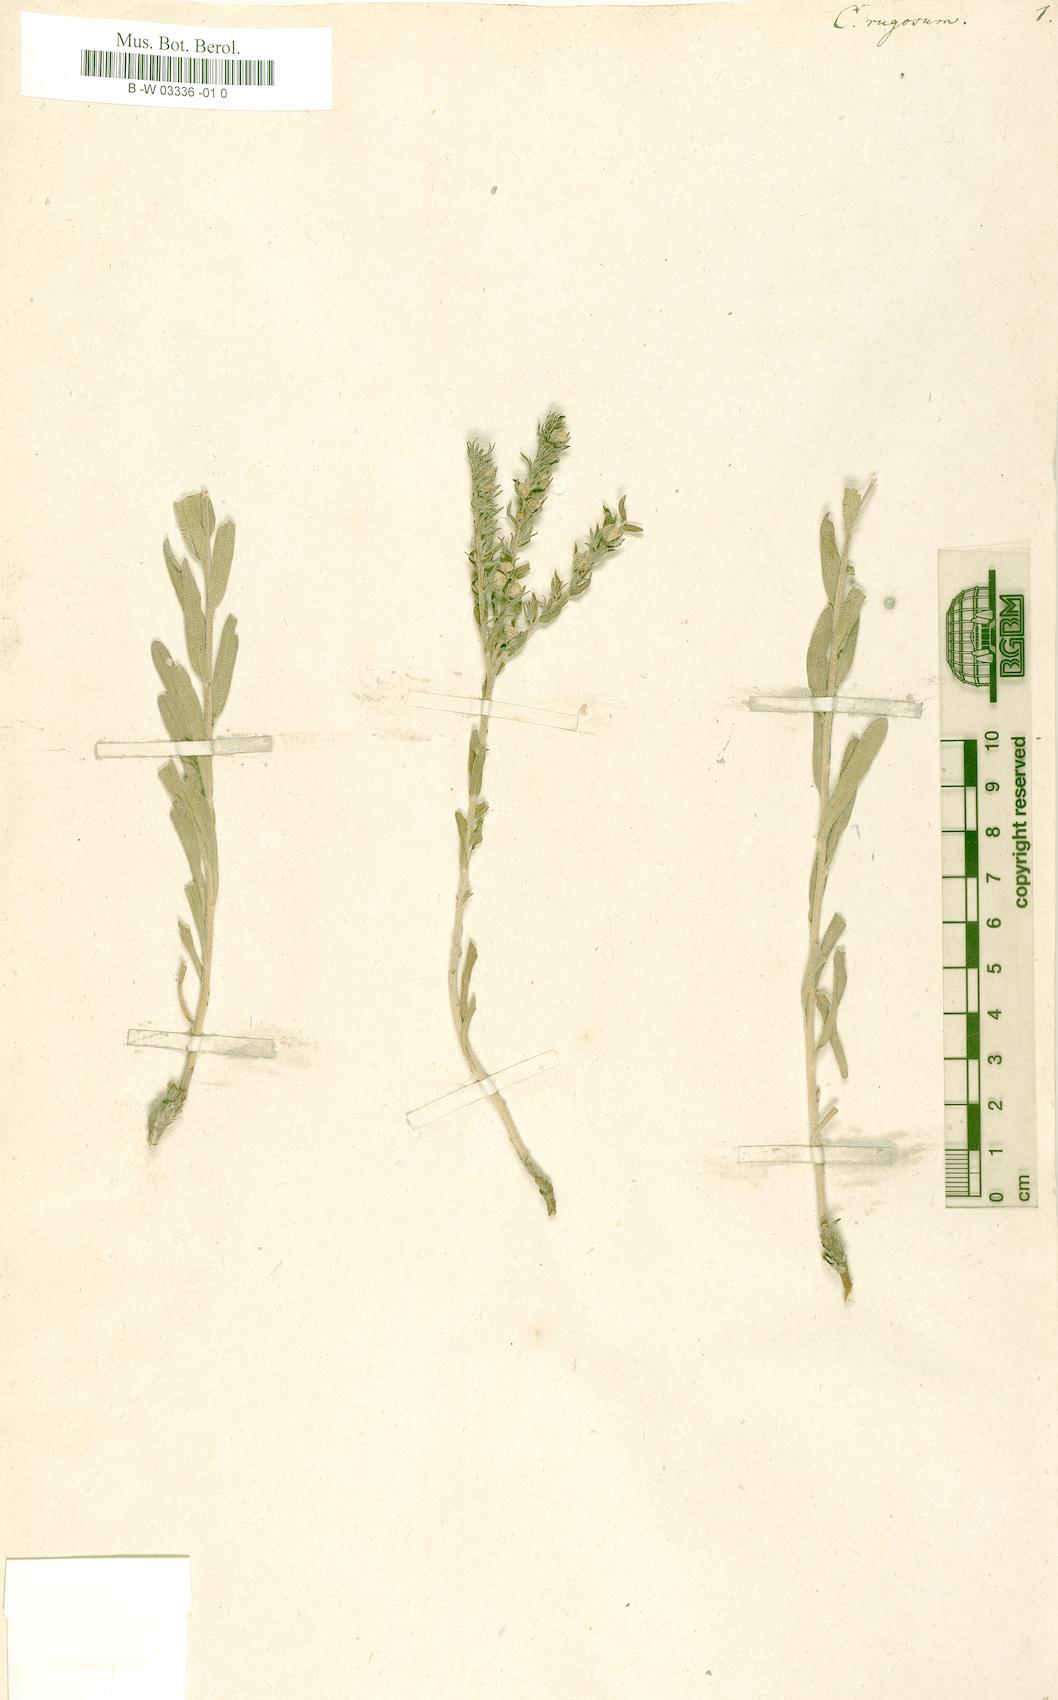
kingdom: Plantae
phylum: Tracheophyta
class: Magnoliopsida
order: Boraginales
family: Boraginaceae
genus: Moltkia
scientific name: Moltkia coerulea
